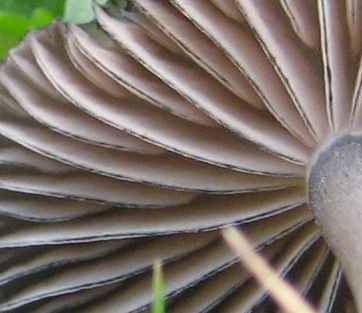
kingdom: Fungi
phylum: Basidiomycota
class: Agaricomycetes
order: Agaricales
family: Entolomataceae
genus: Entoloma
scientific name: Entoloma
